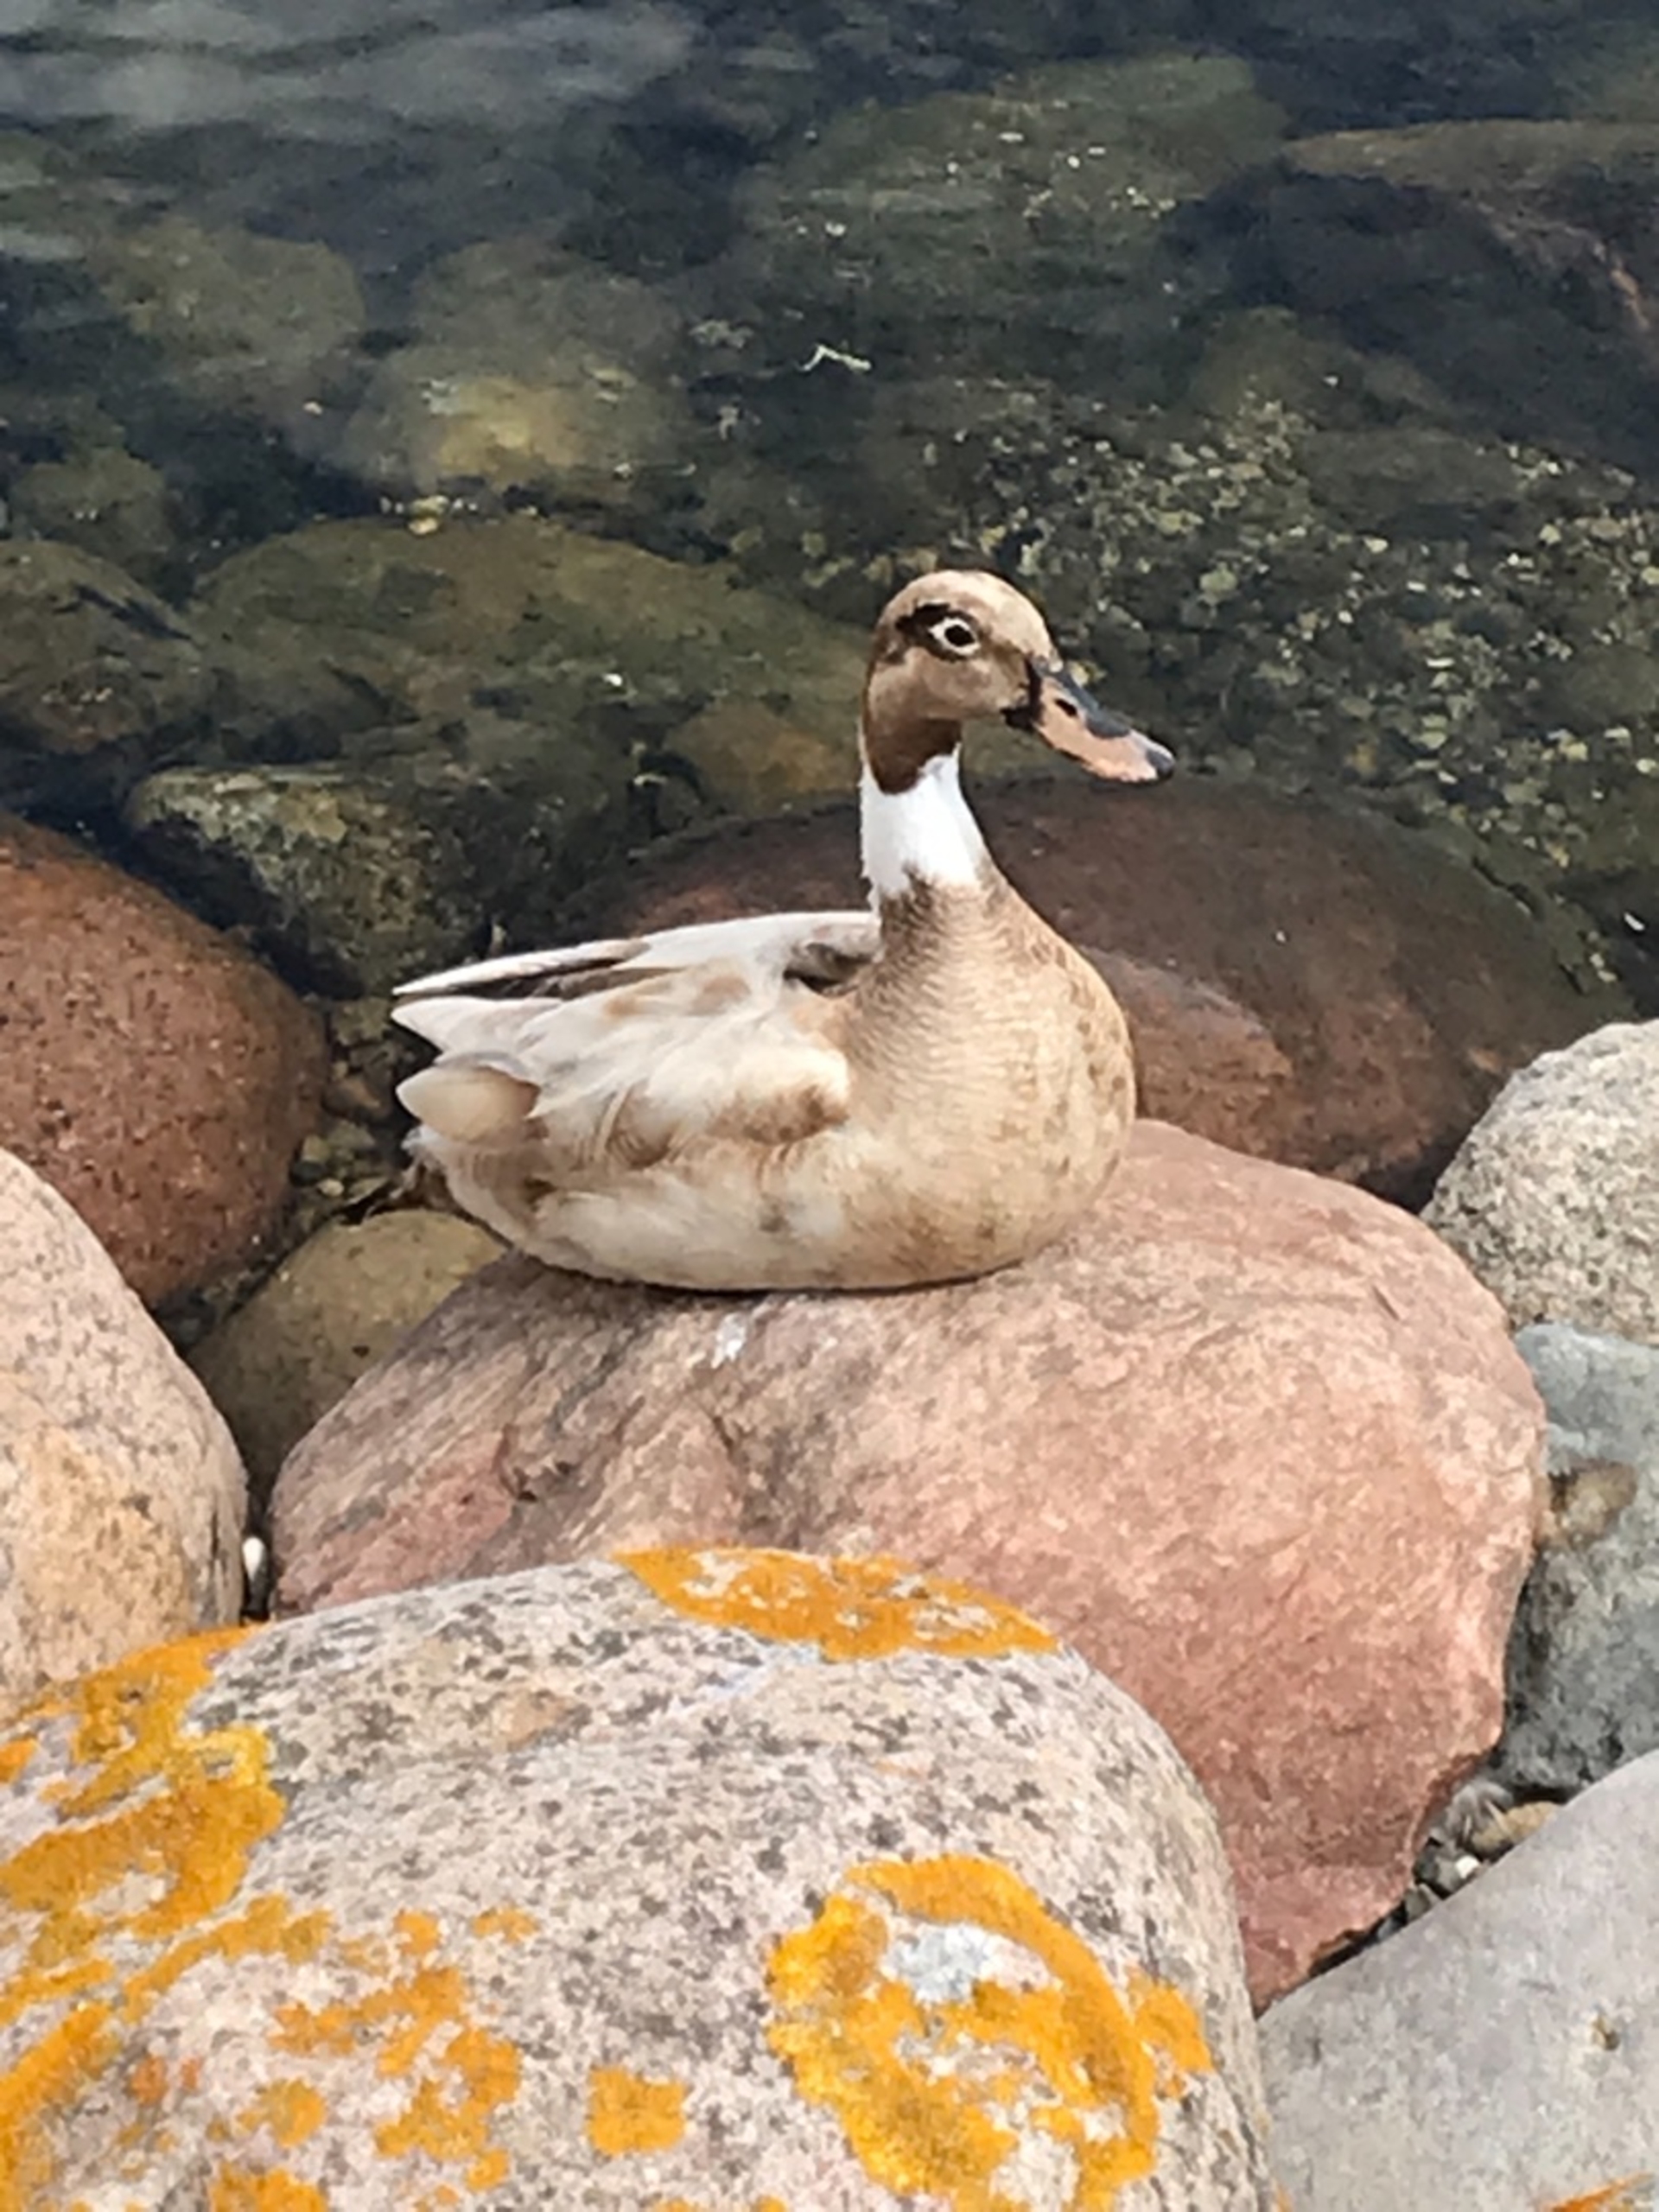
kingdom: Animalia
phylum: Chordata
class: Aves
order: Anseriformes
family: Anatidae
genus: Anas
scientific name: Anas platyrhynchos
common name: Gråand
